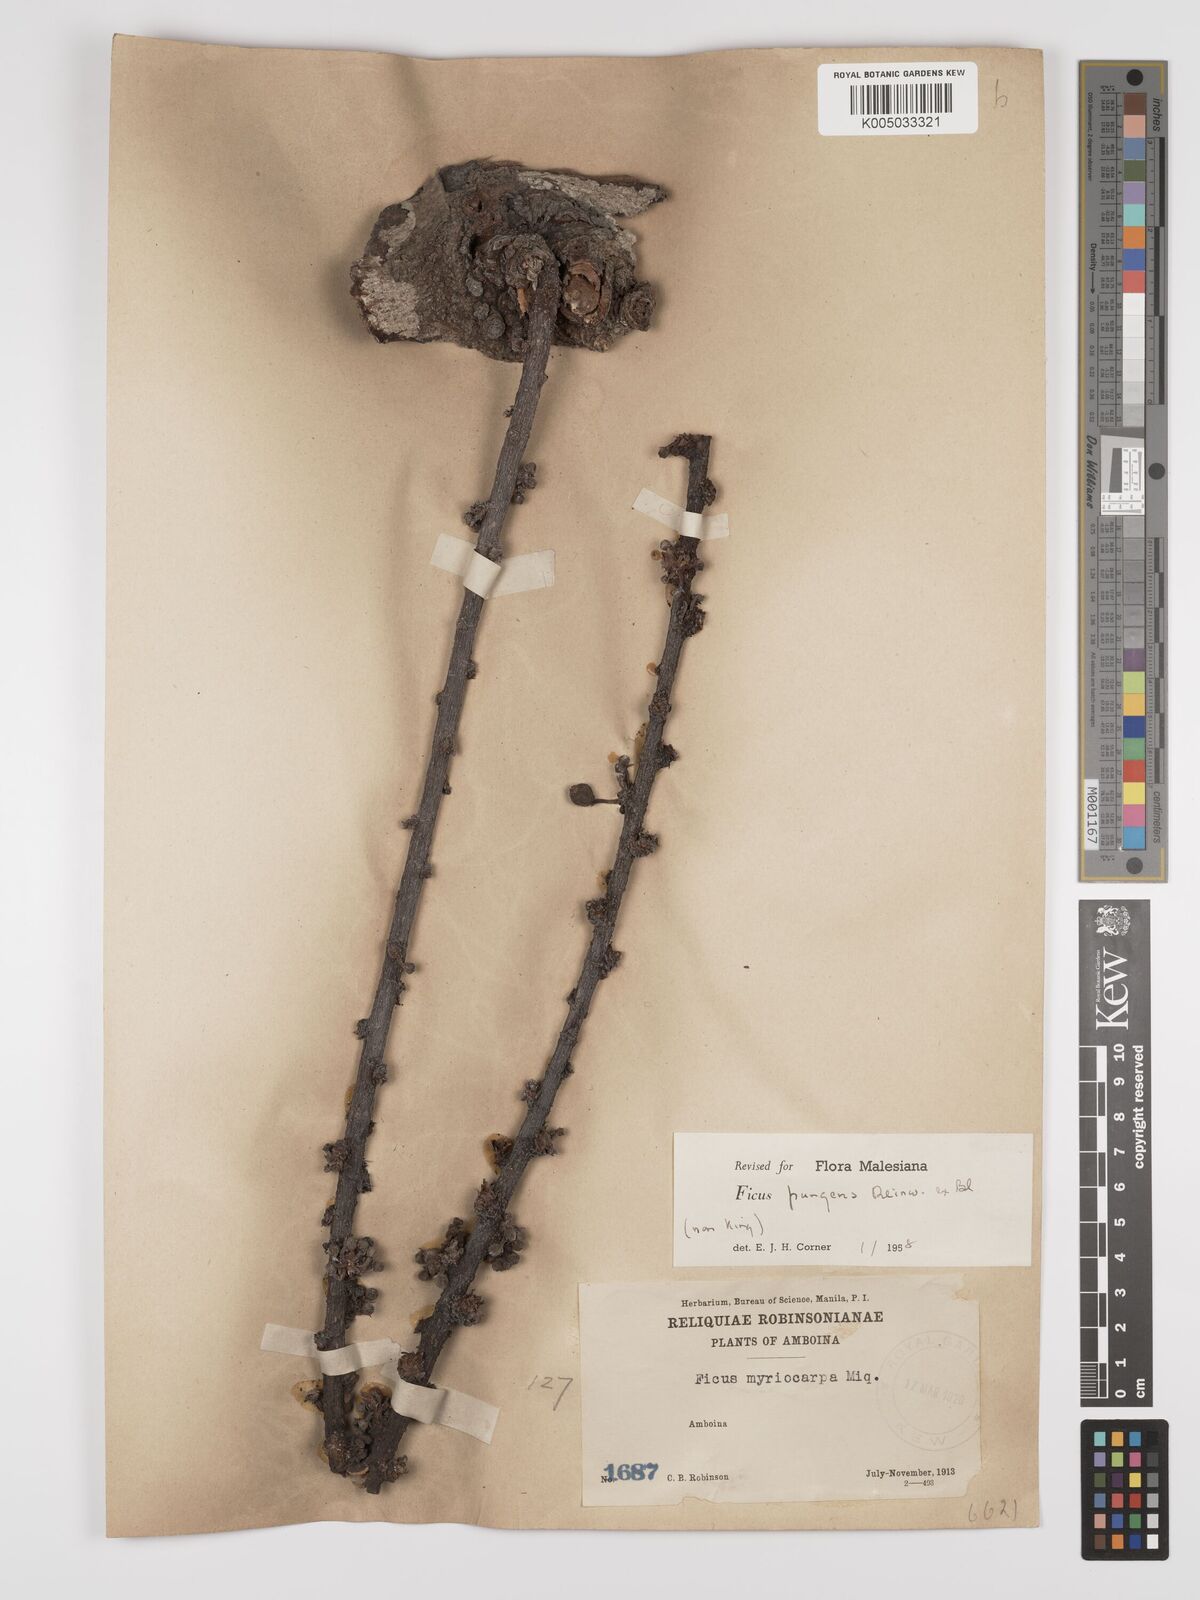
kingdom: Plantae
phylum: Tracheophyta
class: Magnoliopsida
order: Rosales
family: Moraceae
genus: Ficus
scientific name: Ficus pungens
